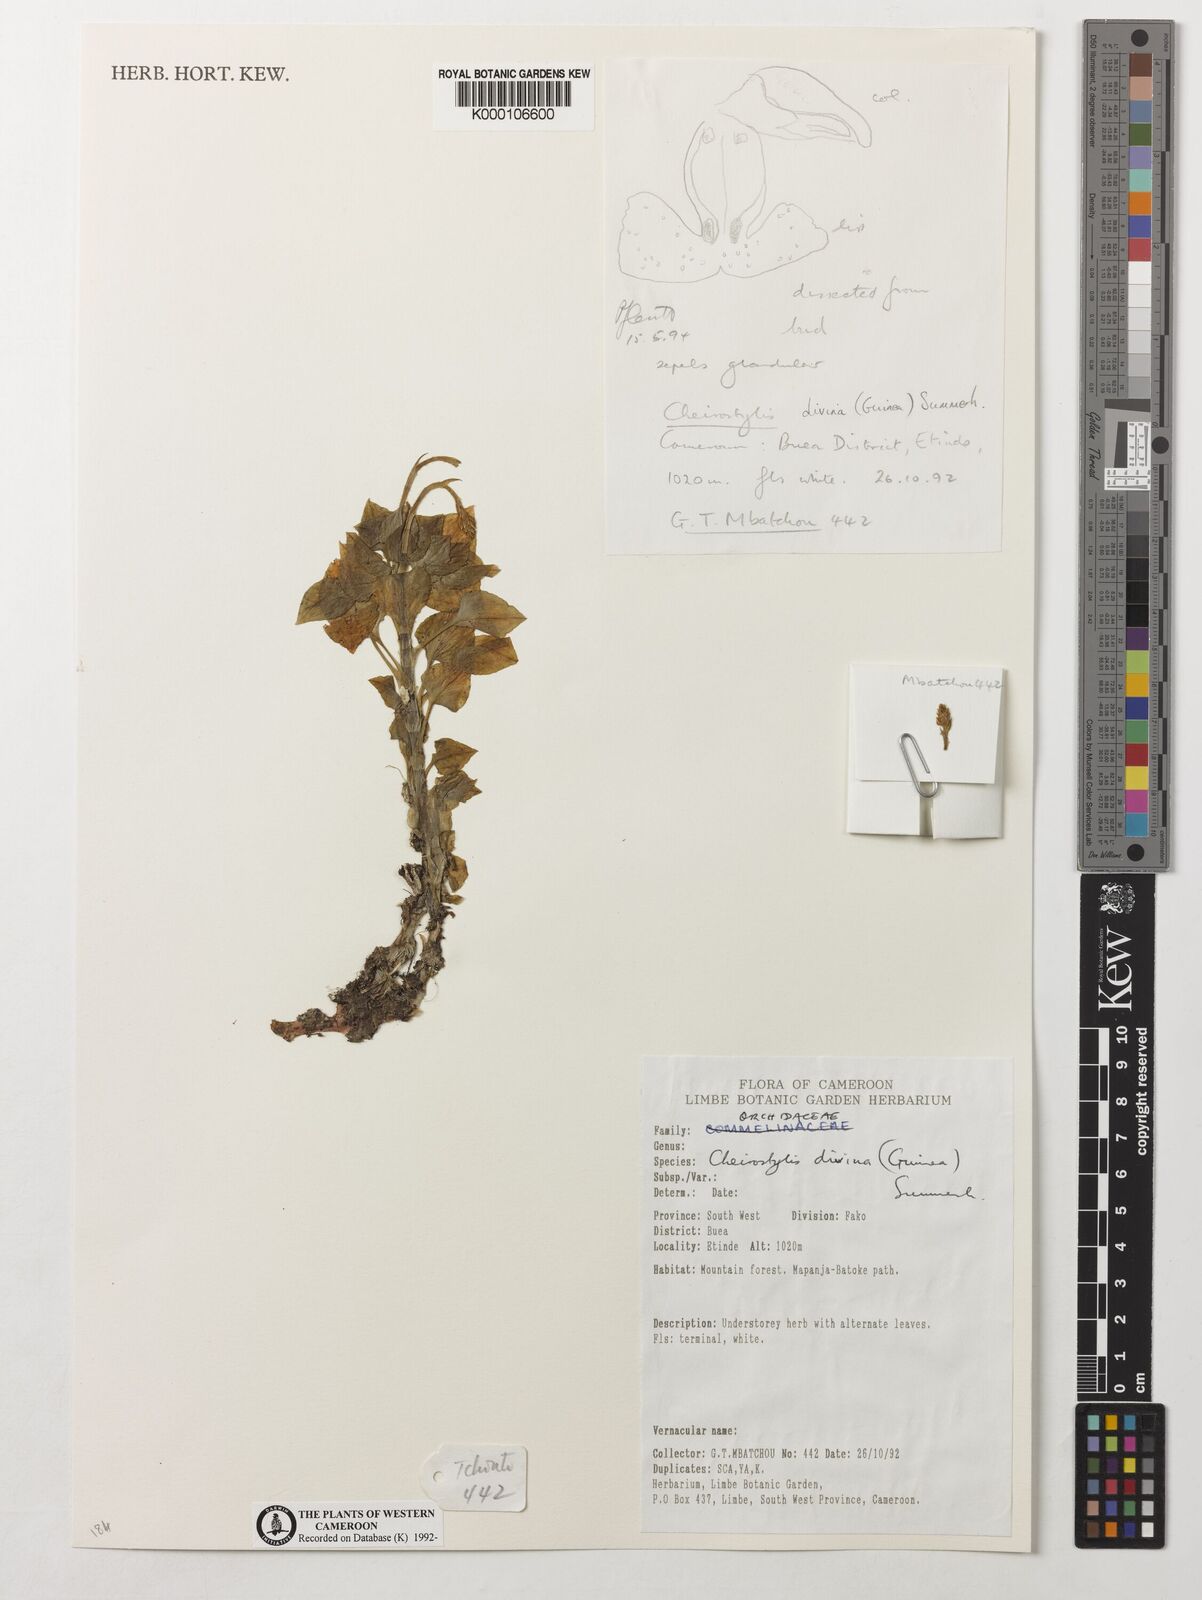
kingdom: Plantae
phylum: Tracheophyta
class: Liliopsida
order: Asparagales
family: Orchidaceae
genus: Cheirostylis
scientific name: Cheirostylis divina
